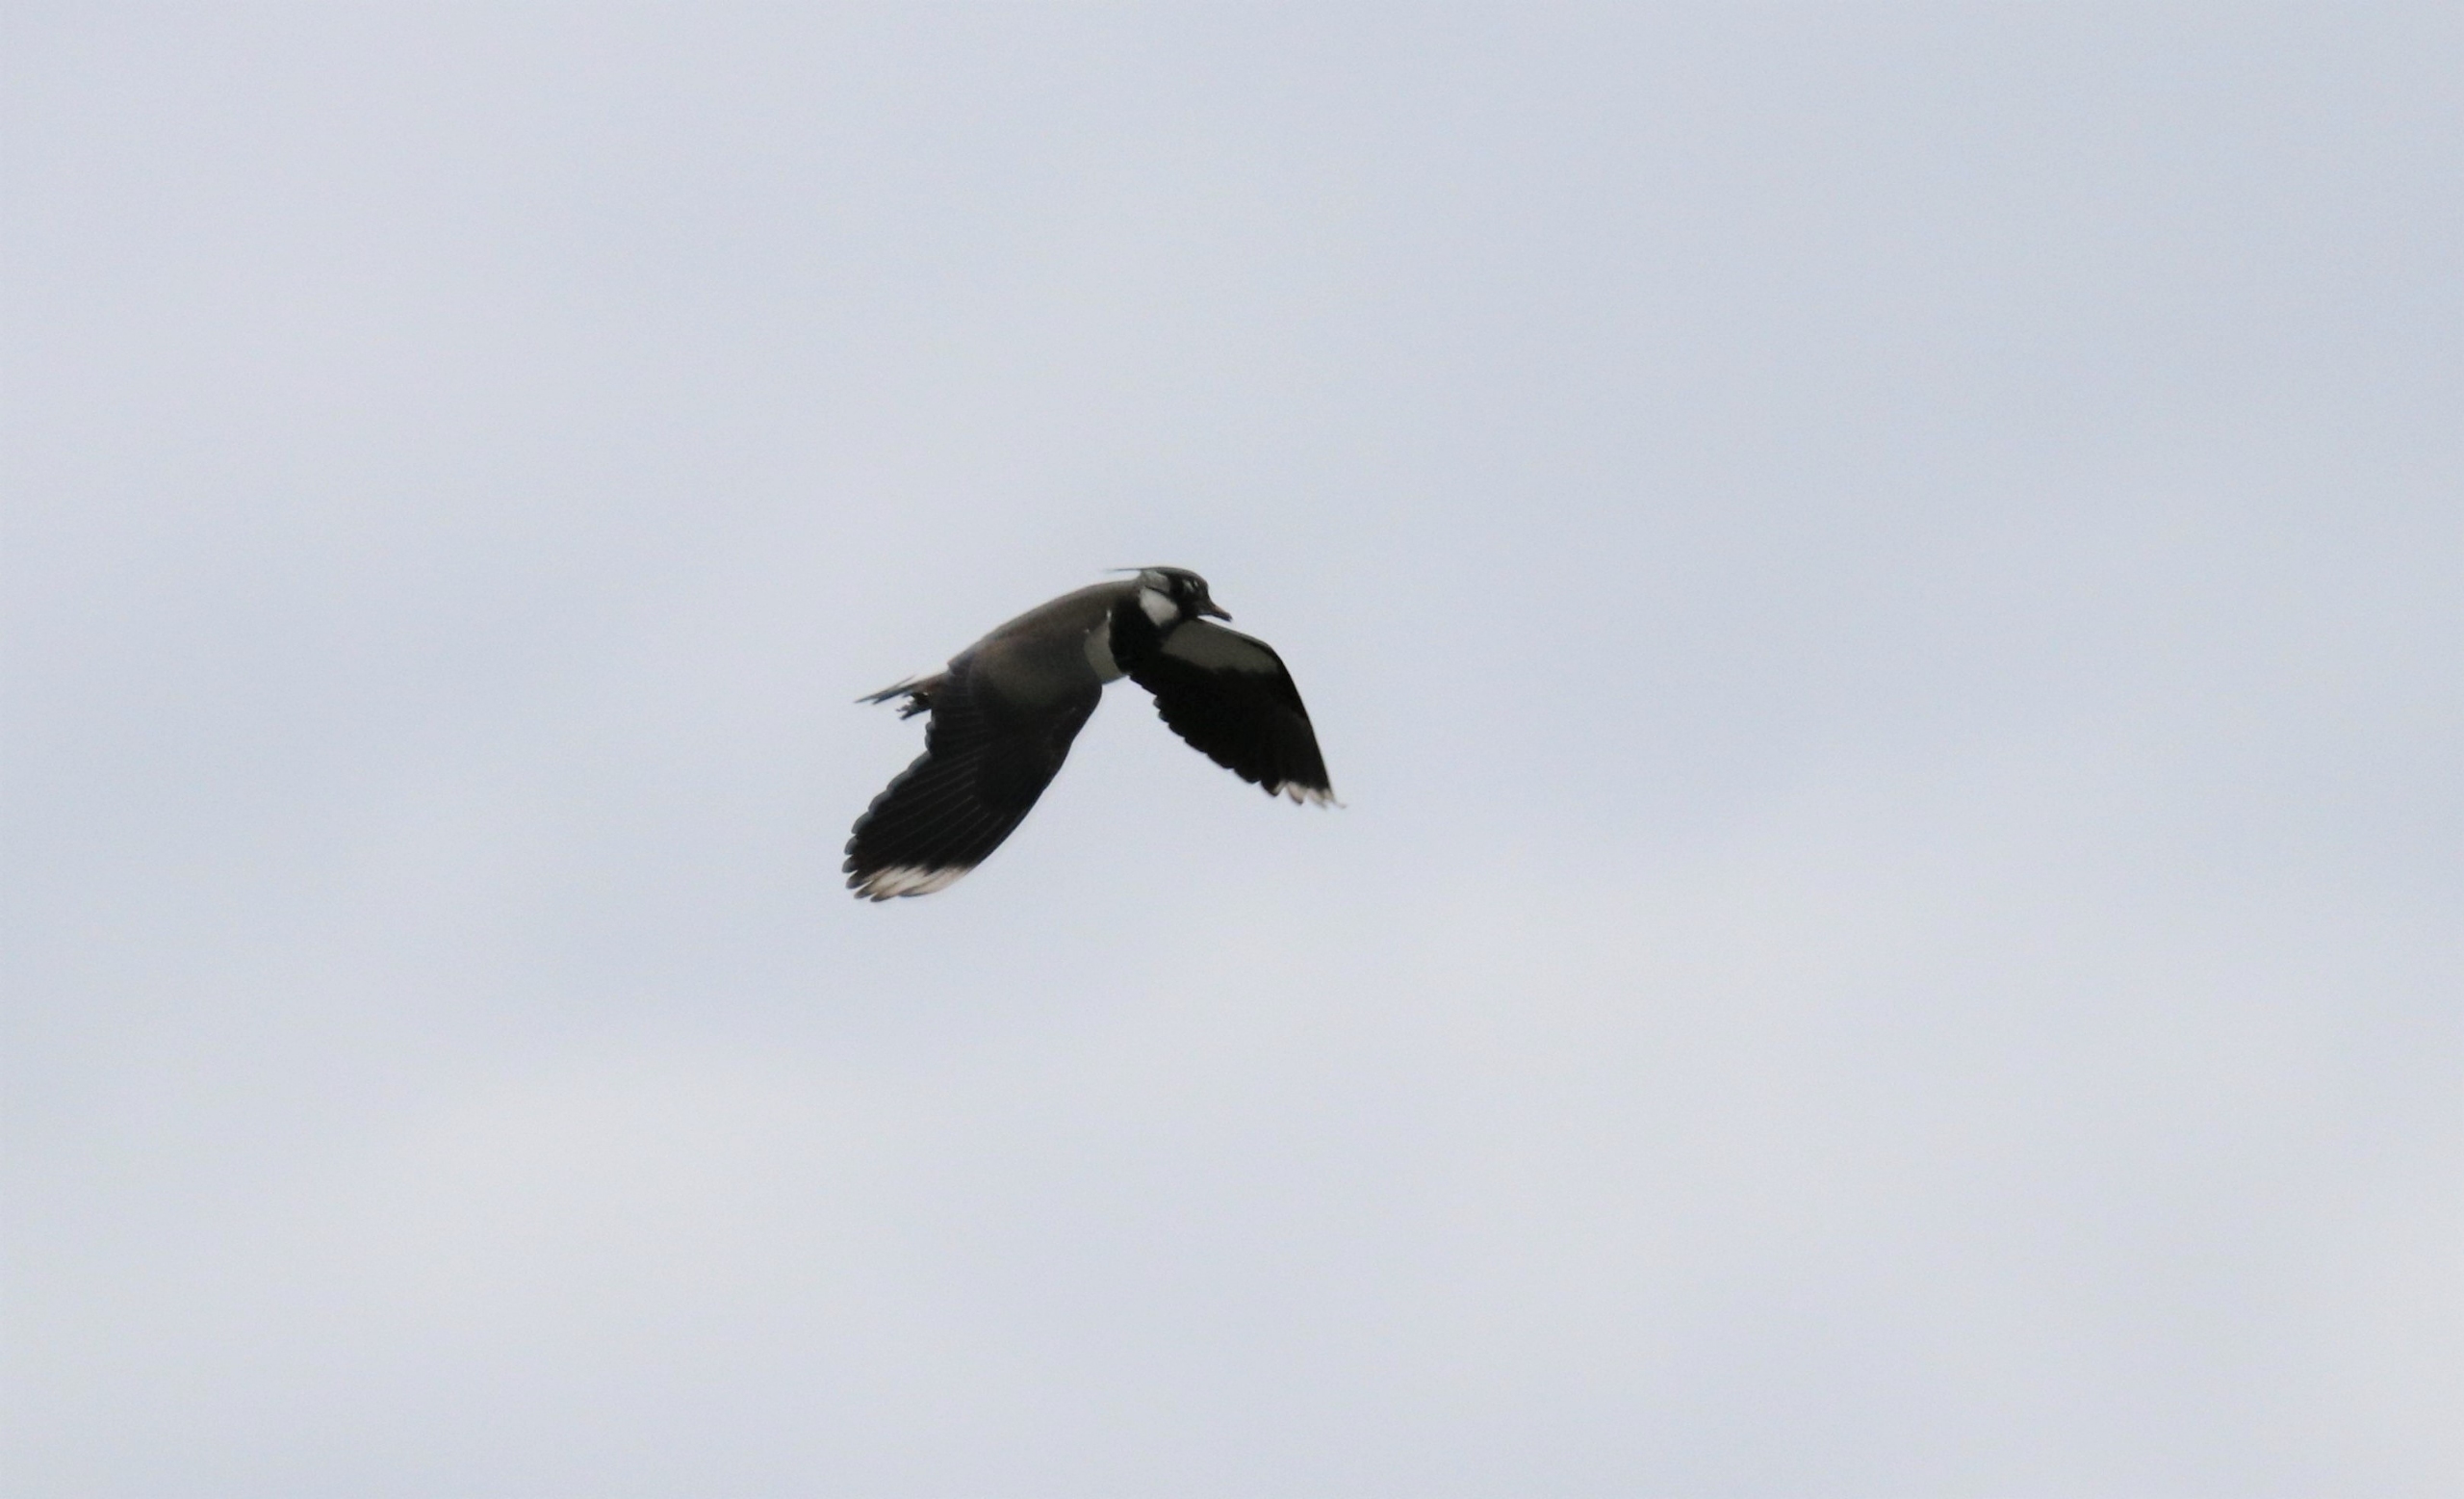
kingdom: Animalia
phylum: Chordata
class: Aves
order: Charadriiformes
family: Charadriidae
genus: Vanellus
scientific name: Vanellus vanellus
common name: Vibe
